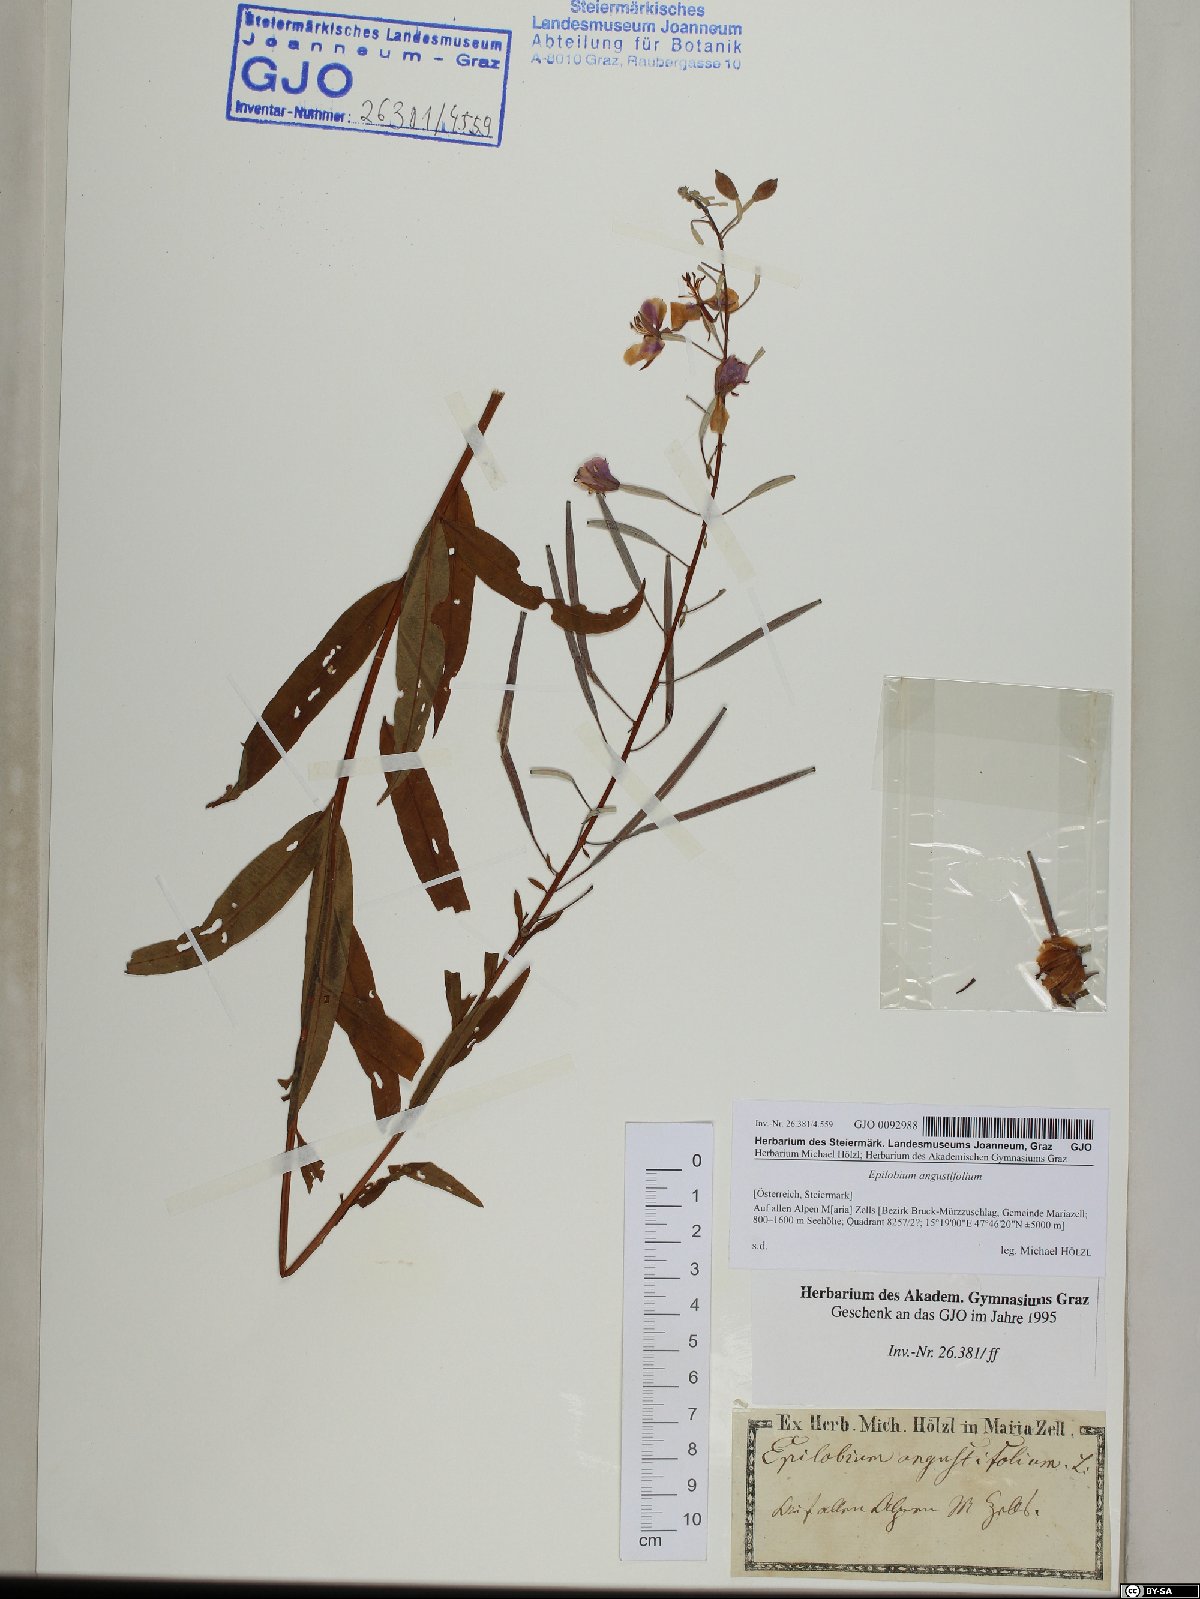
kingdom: Plantae
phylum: Tracheophyta
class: Magnoliopsida
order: Myrtales
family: Onagraceae
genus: Chamaenerion
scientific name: Chamaenerion angustifolium
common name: Fireweed
